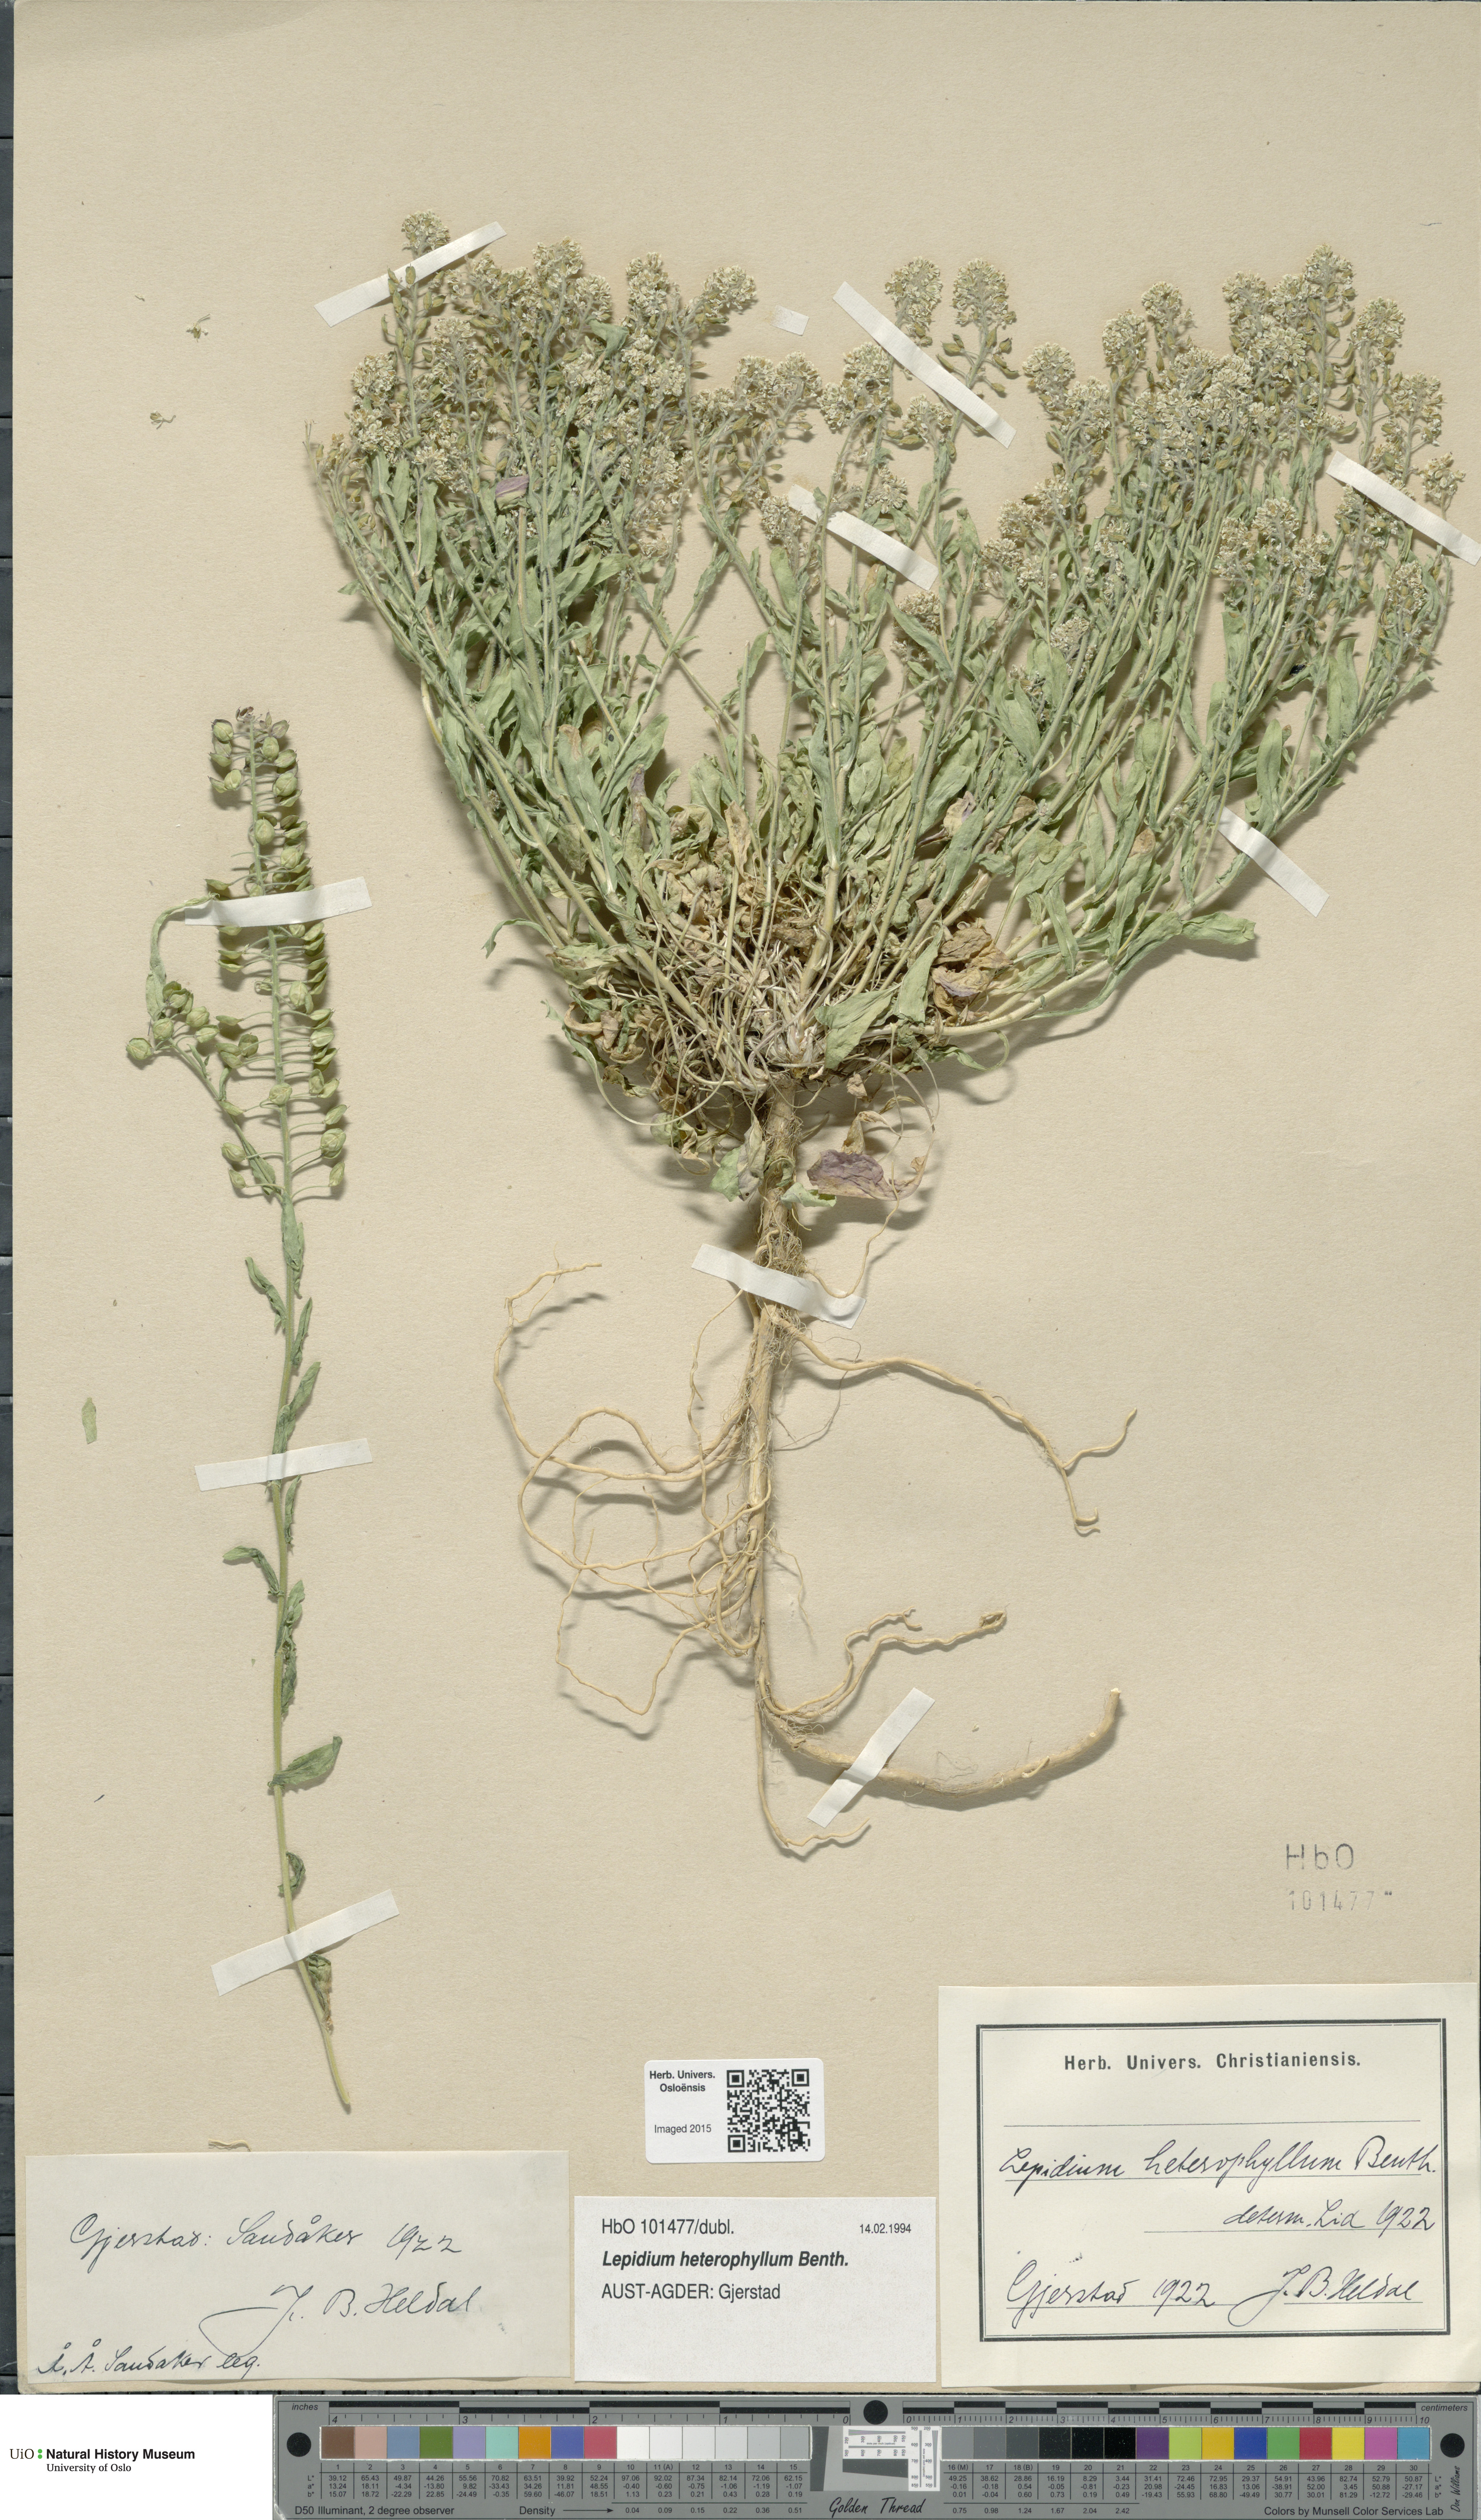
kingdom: Plantae
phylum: Tracheophyta
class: Magnoliopsida
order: Brassicales
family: Brassicaceae
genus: Lepidium
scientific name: Lepidium heterophyllum
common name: Smith's pepperwort
